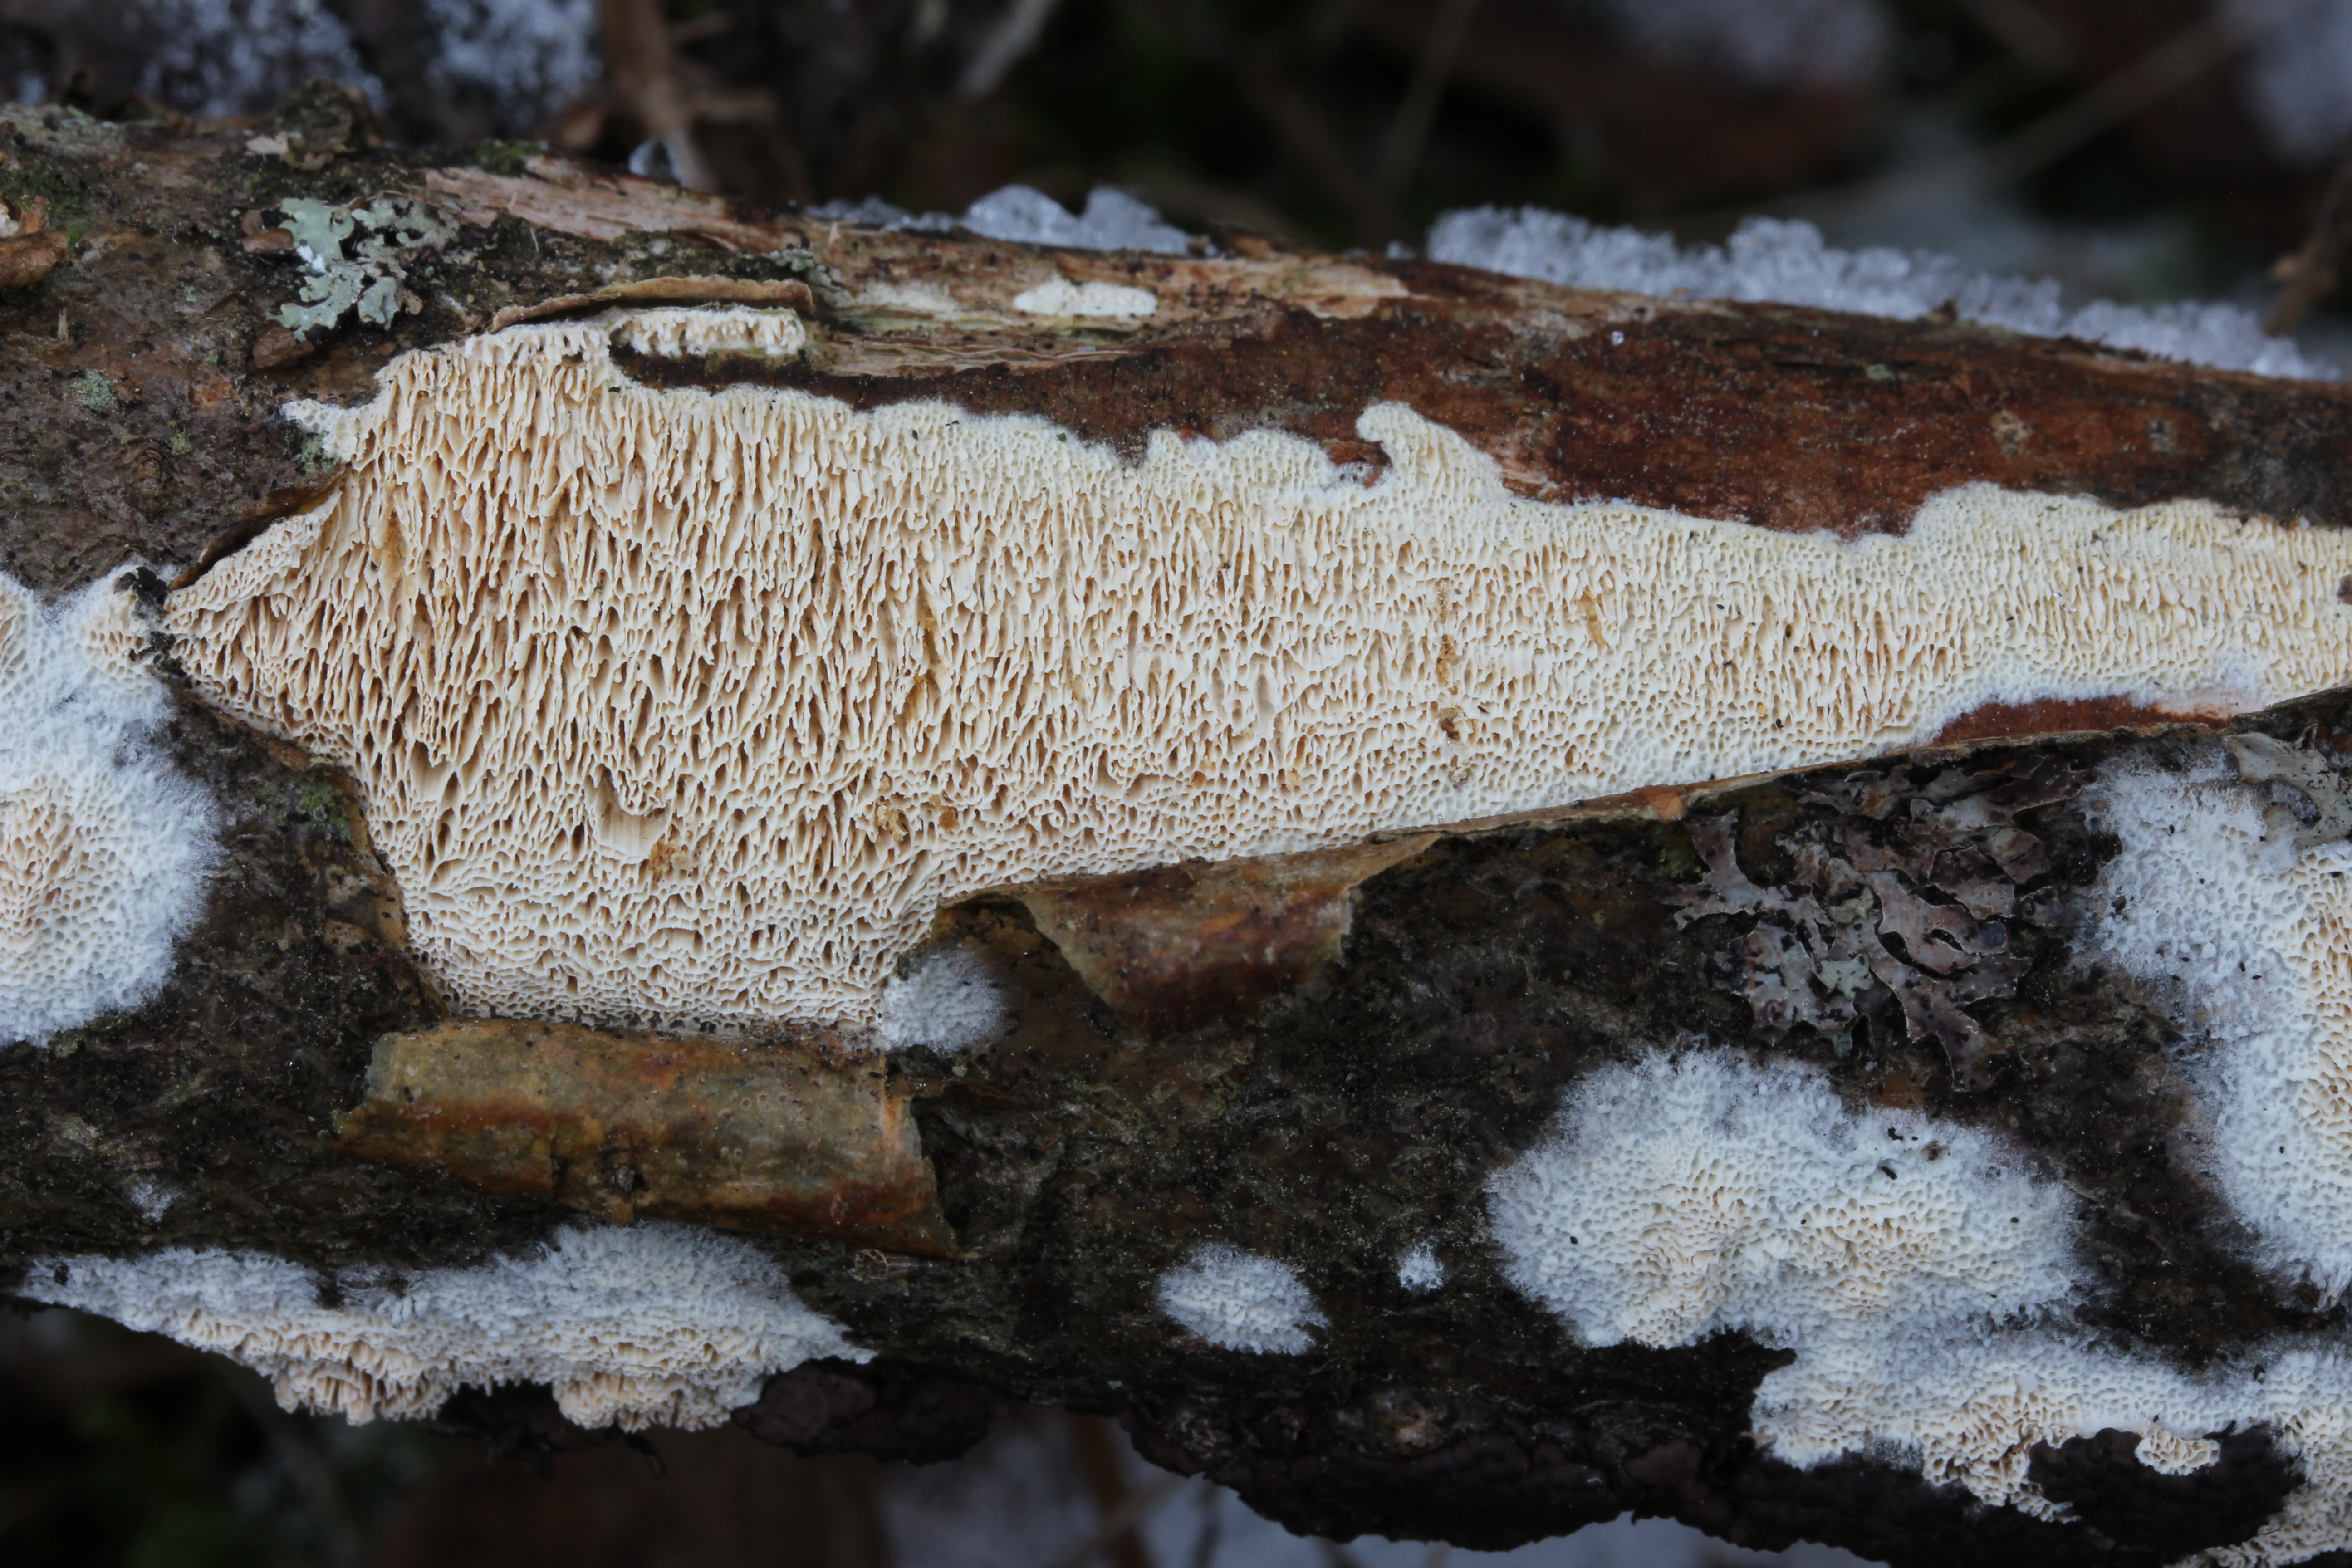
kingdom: Fungi
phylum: Basidiomycota
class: Agaricomycetes
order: Polyporales
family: Cerrenaceae
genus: Raduliporus
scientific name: Raduliporus aneirinus
